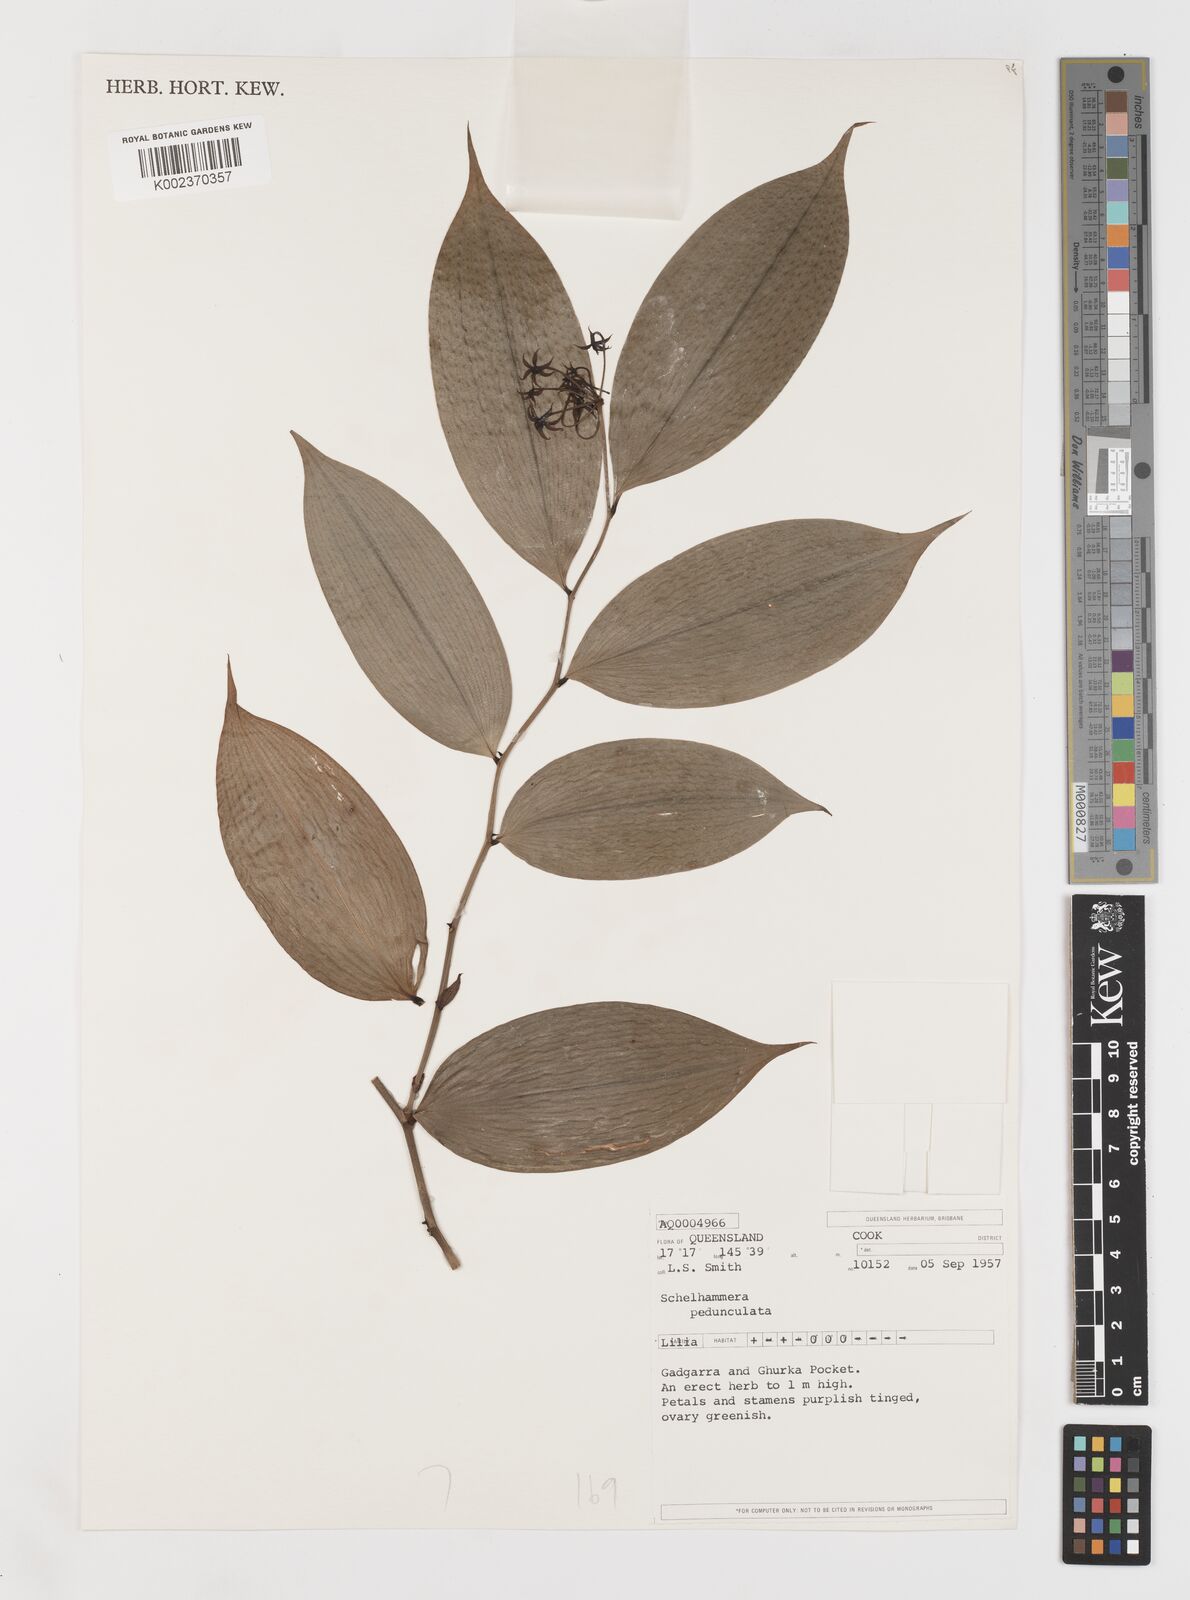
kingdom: Plantae
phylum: Tracheophyta
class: Liliopsida
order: Liliales
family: Colchicaceae
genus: Kuntheria
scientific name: Kuntheria pedunculata
